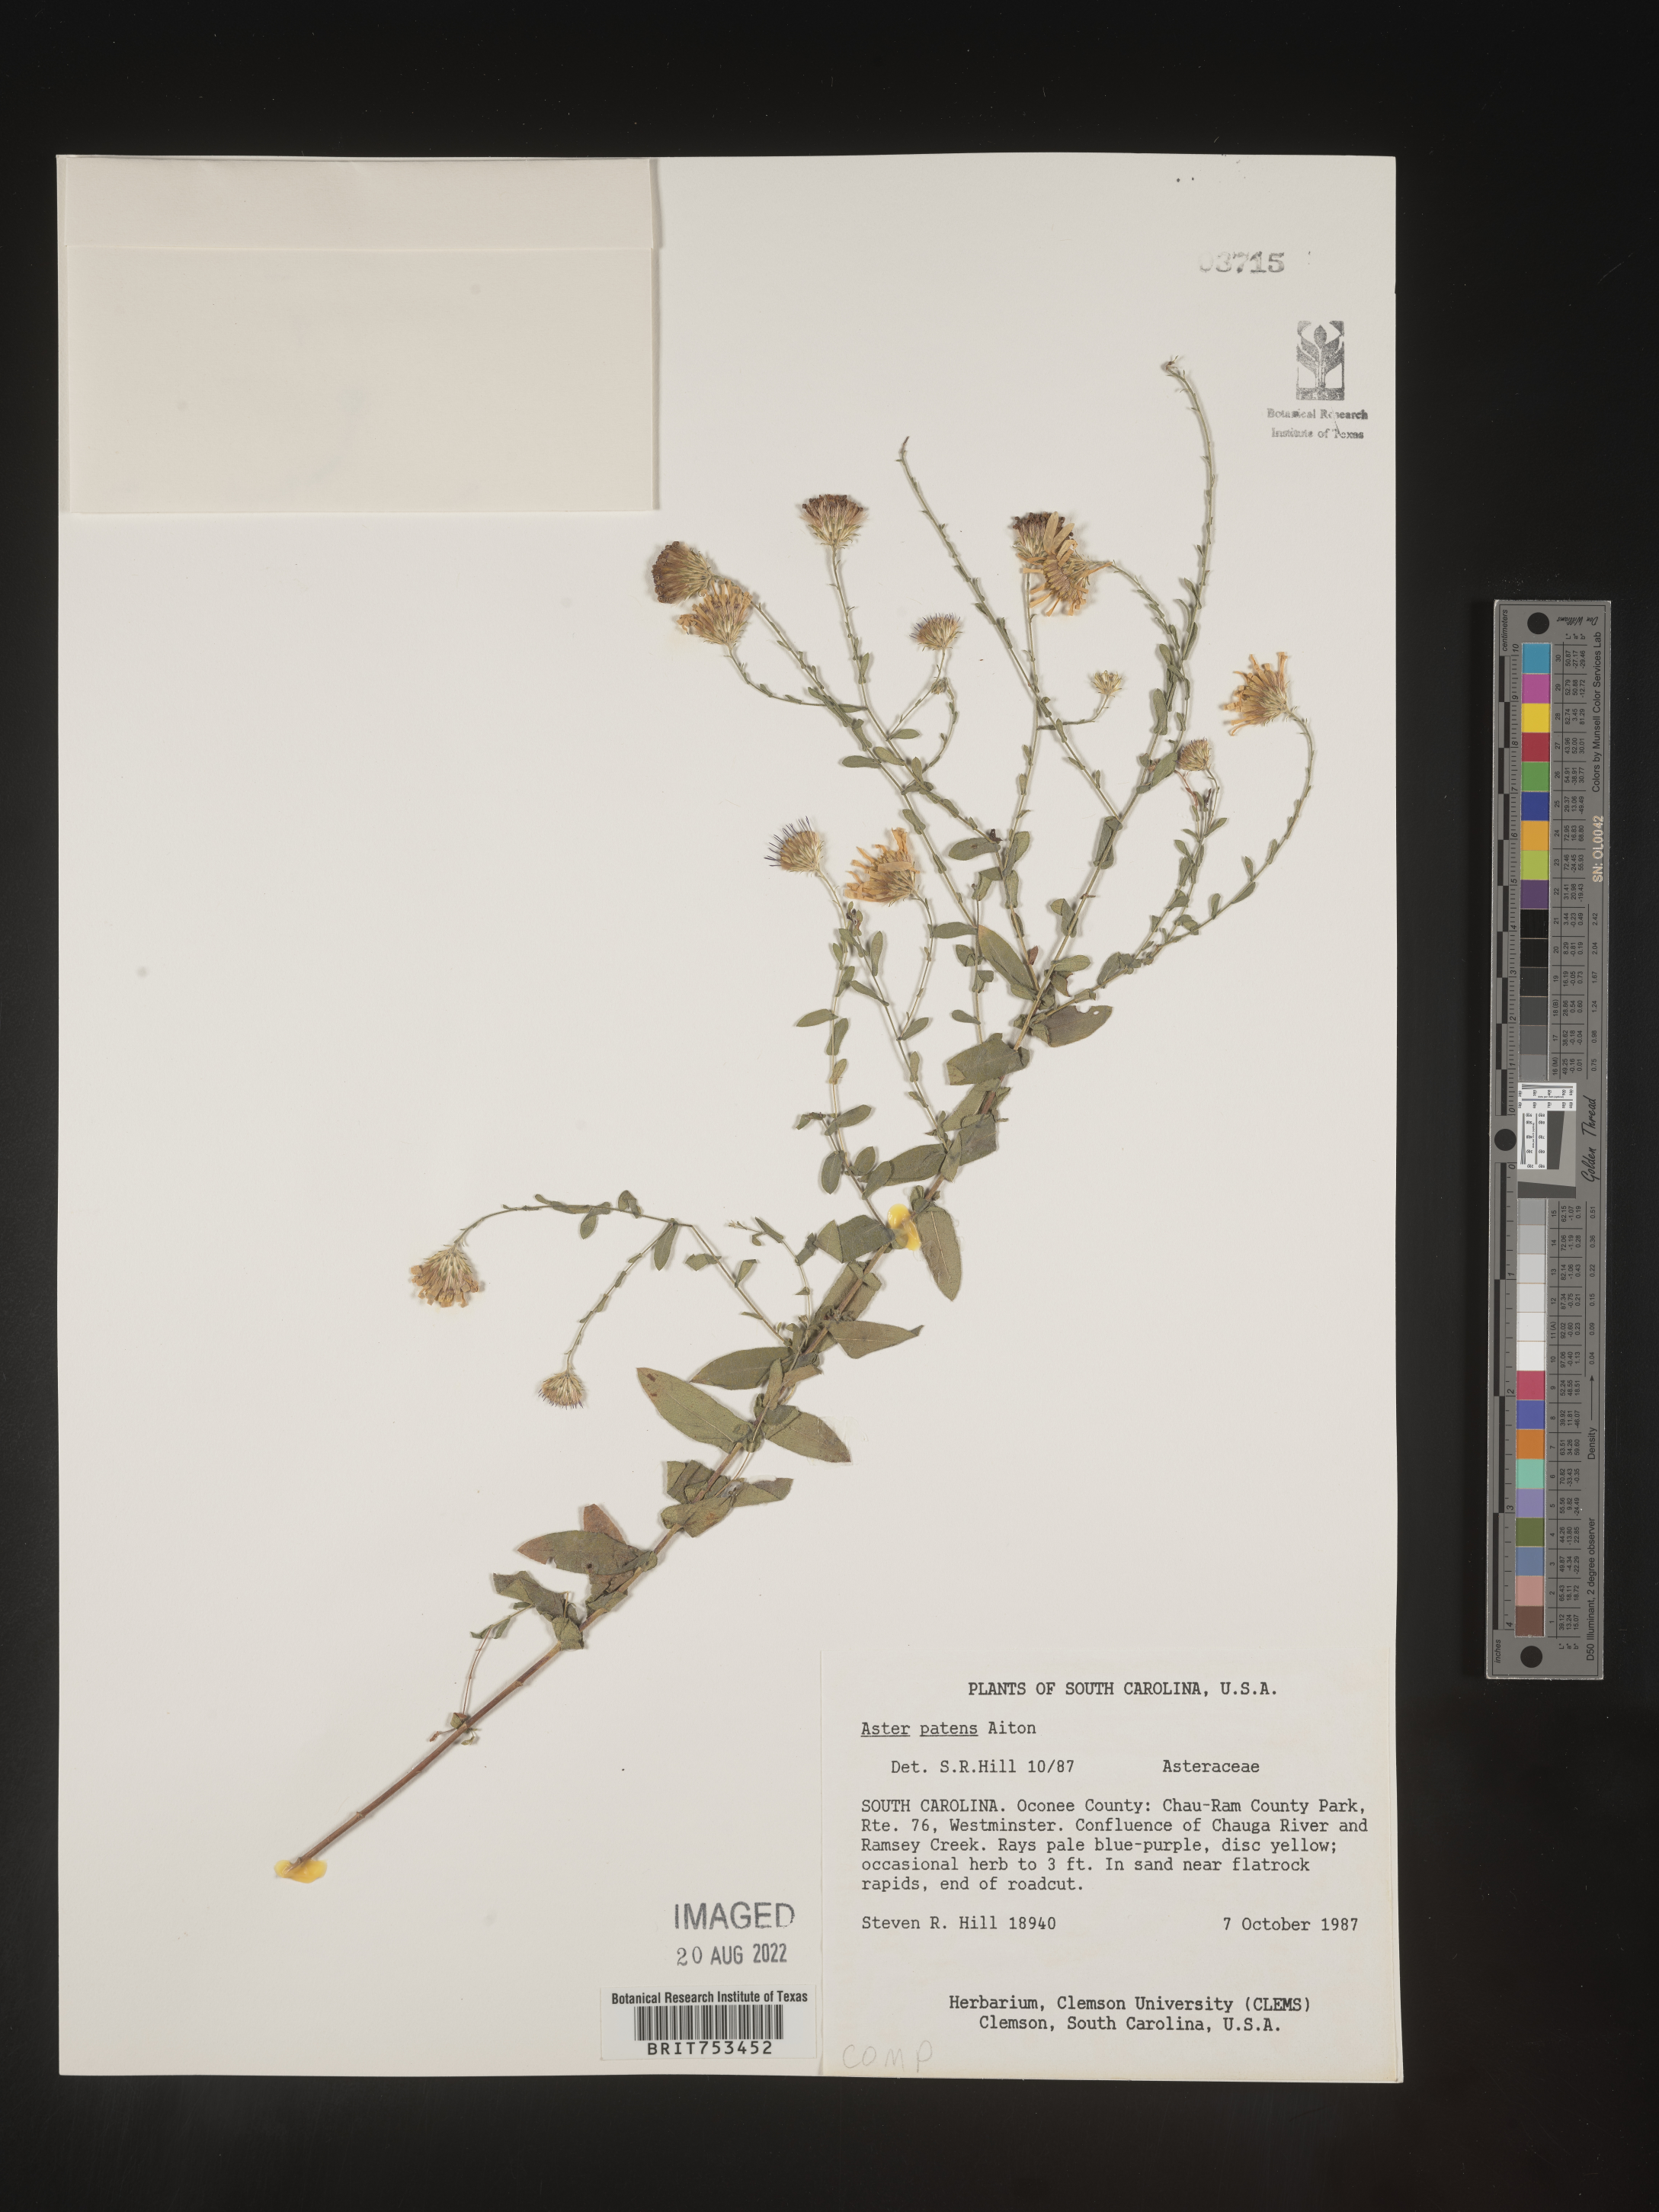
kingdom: Plantae
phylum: Tracheophyta
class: Magnoliopsida
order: Asterales
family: Asteraceae
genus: Symphyotrichum
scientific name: Symphyotrichum patens
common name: Late purple aster
